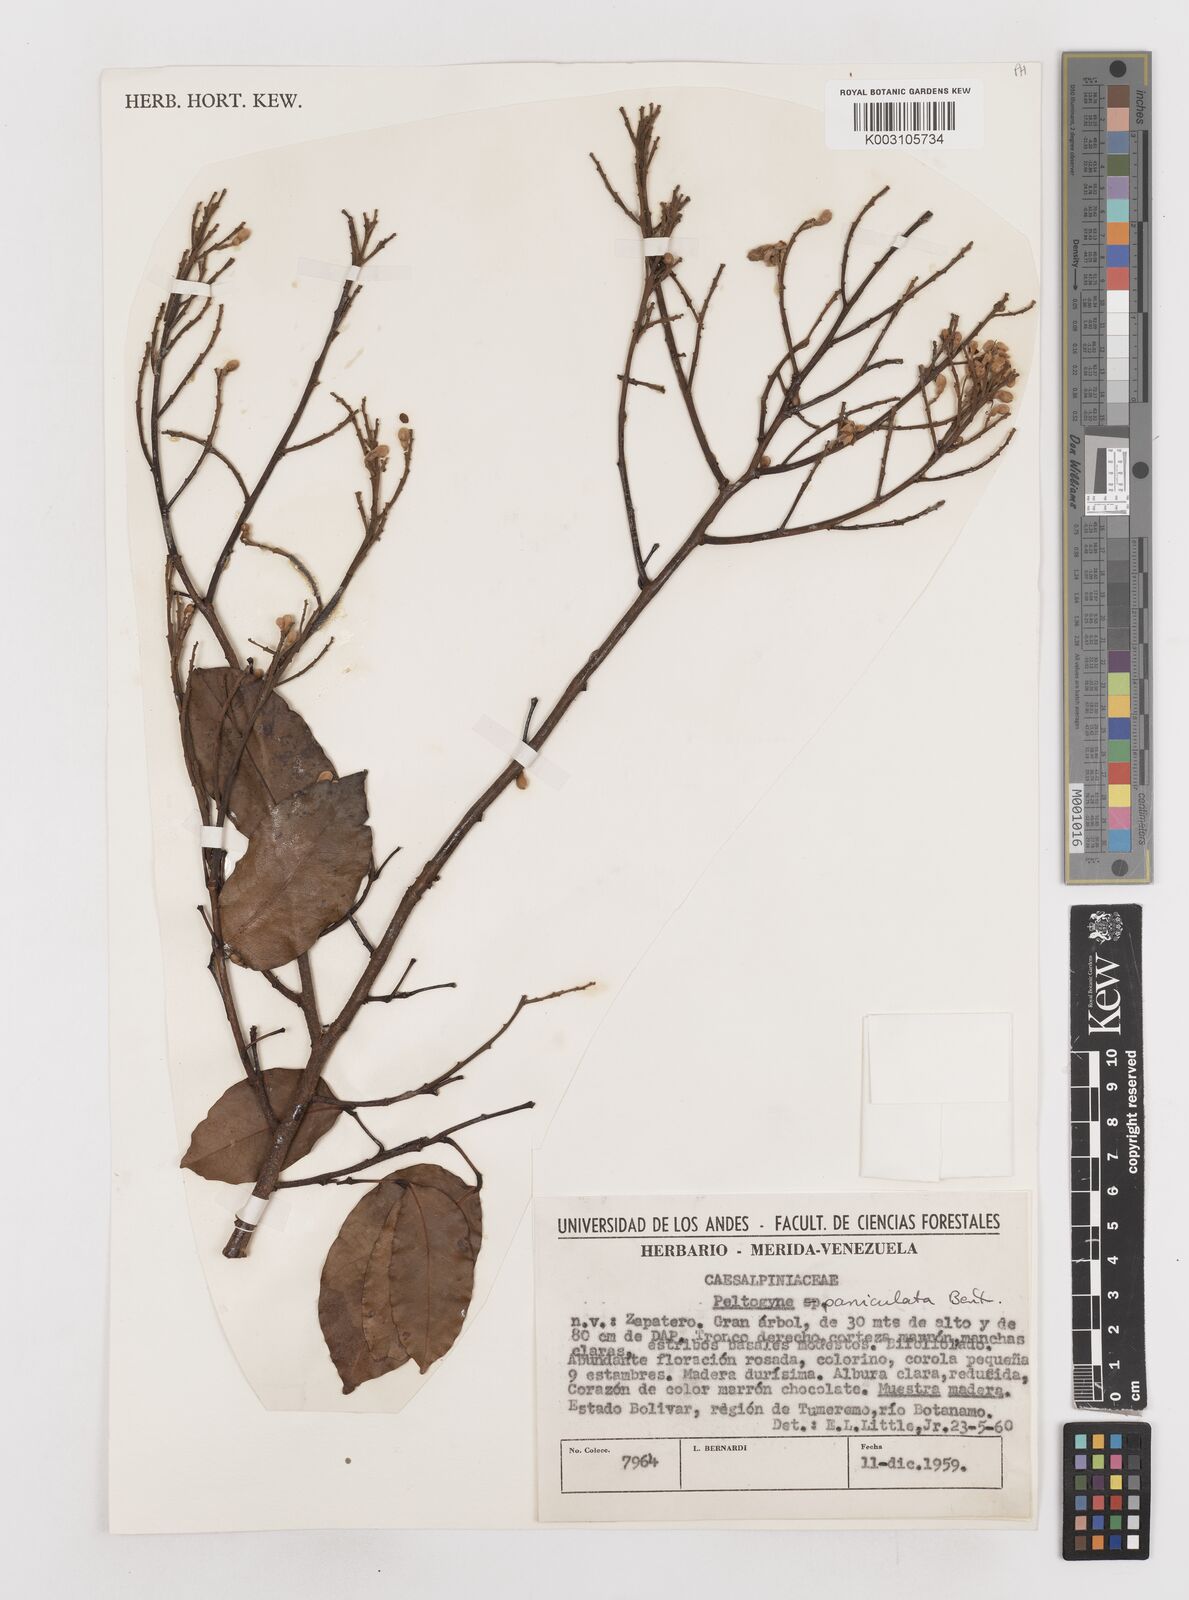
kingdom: Plantae
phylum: Tracheophyta
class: Magnoliopsida
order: Fabales
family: Fabaceae
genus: Peltogyne
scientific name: Peltogyne paniculata
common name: Purpleheart
